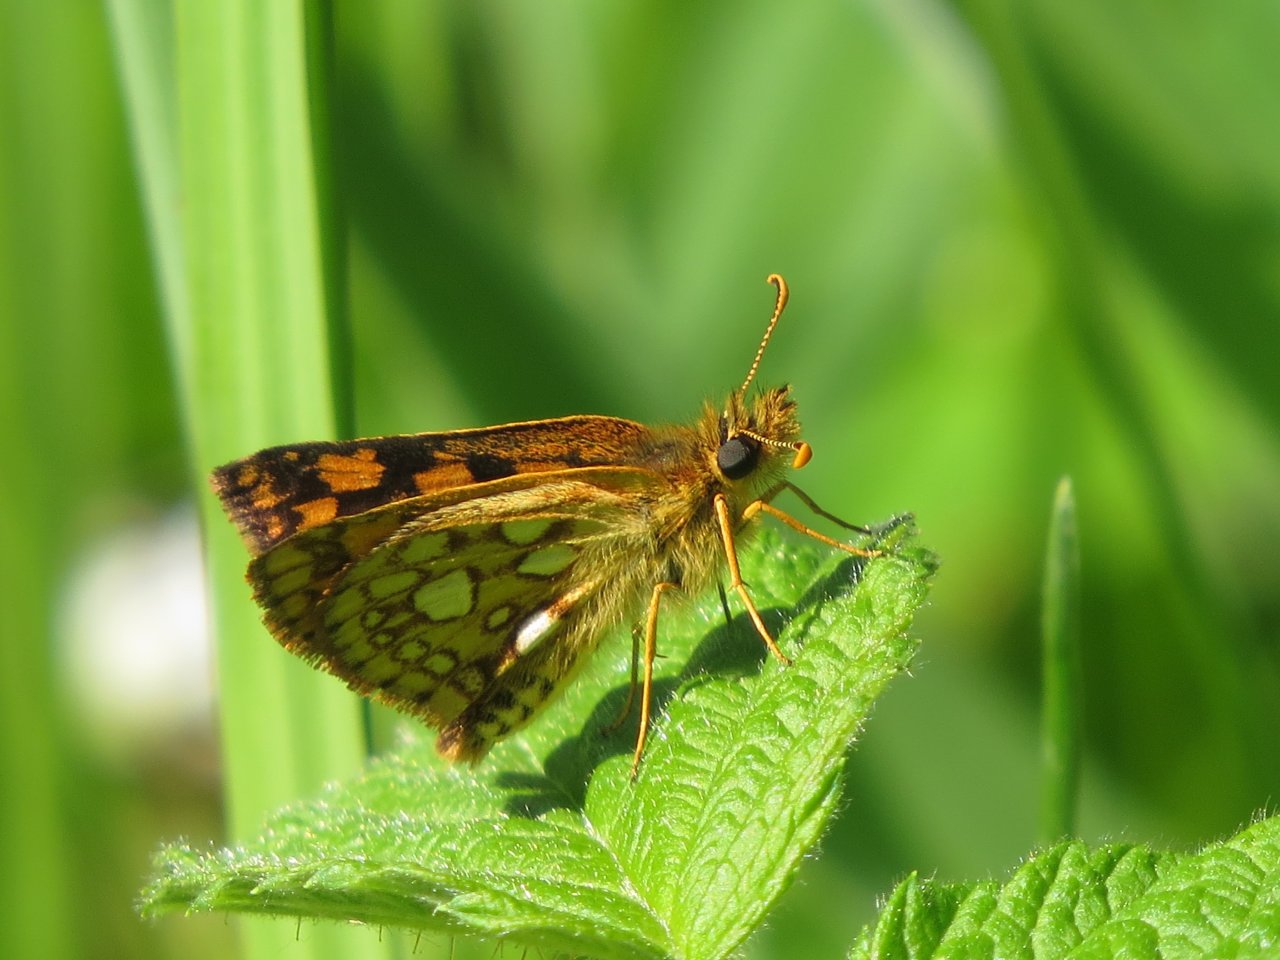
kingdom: Animalia
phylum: Arthropoda
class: Insecta
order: Lepidoptera
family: Hesperiidae
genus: Carterocephalus
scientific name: Carterocephalus palaemon
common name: Chequered Skipper
